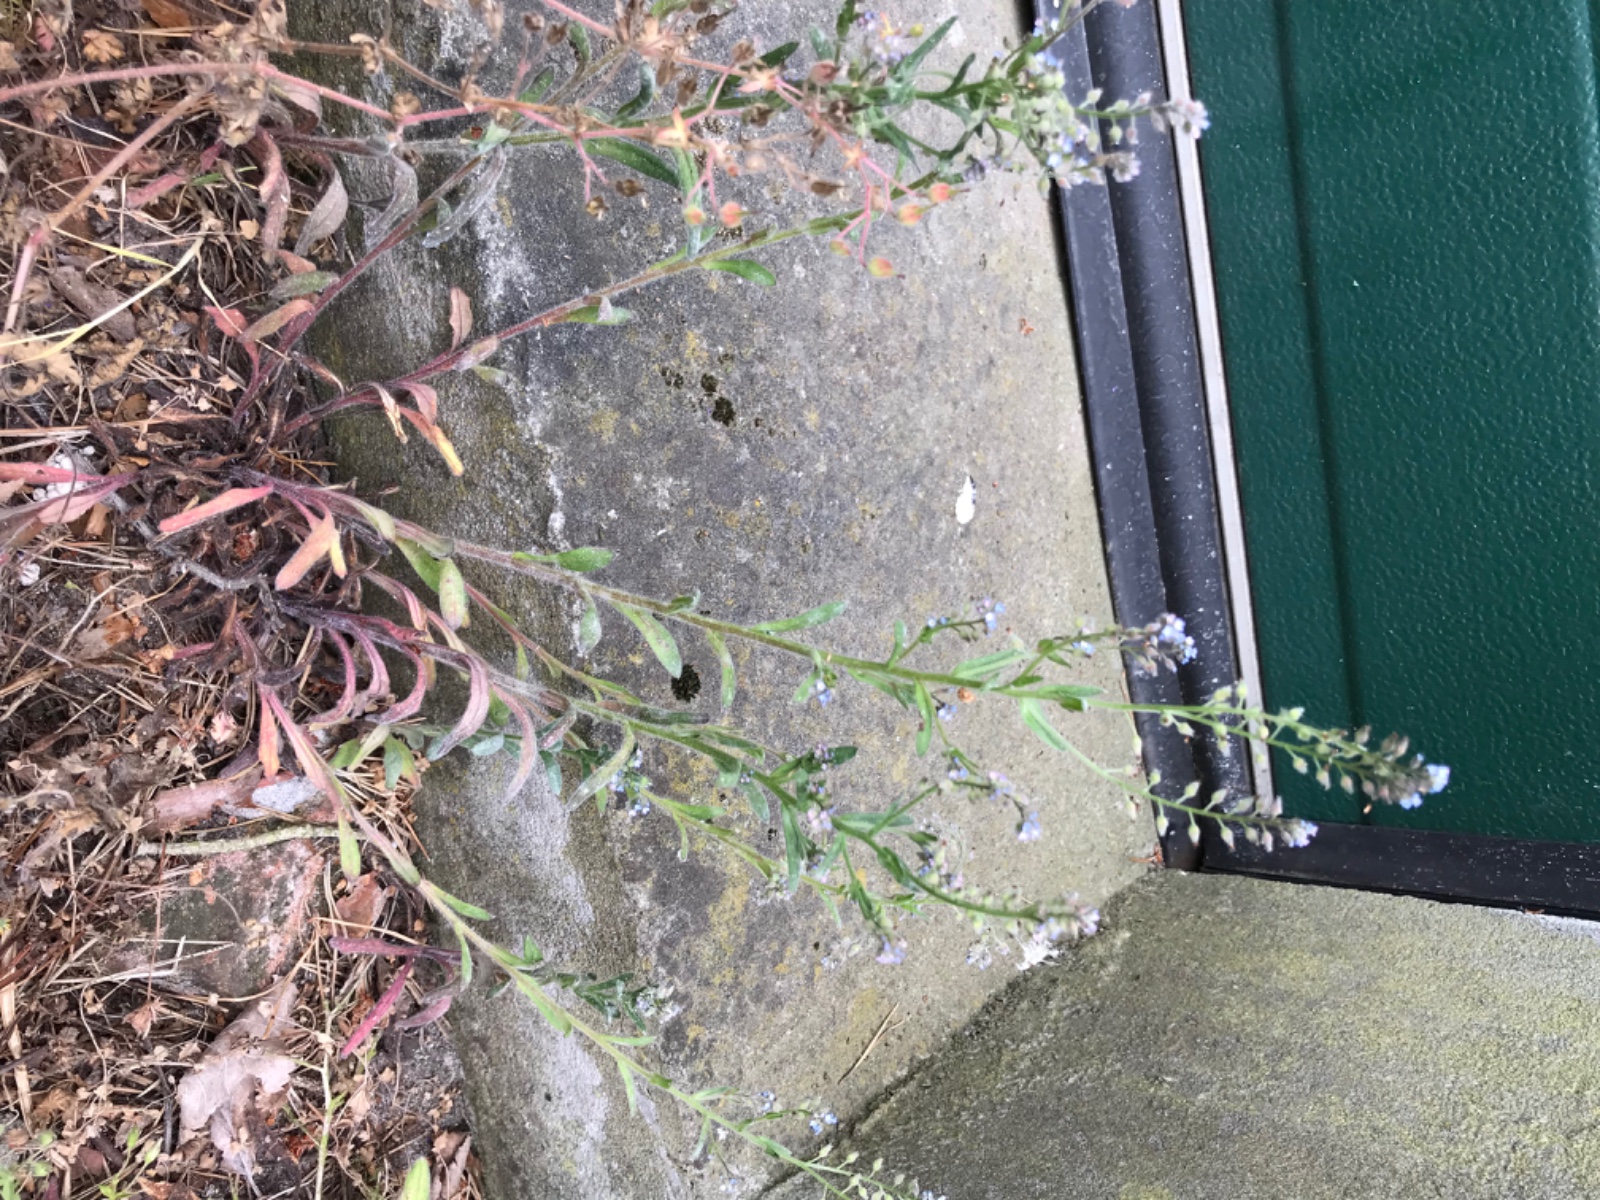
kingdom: Fungi
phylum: Ascomycota
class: Leotiomycetes
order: Helotiales
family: Erysiphaceae
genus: Golovinomyces
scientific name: Golovinomyces asperifolii
